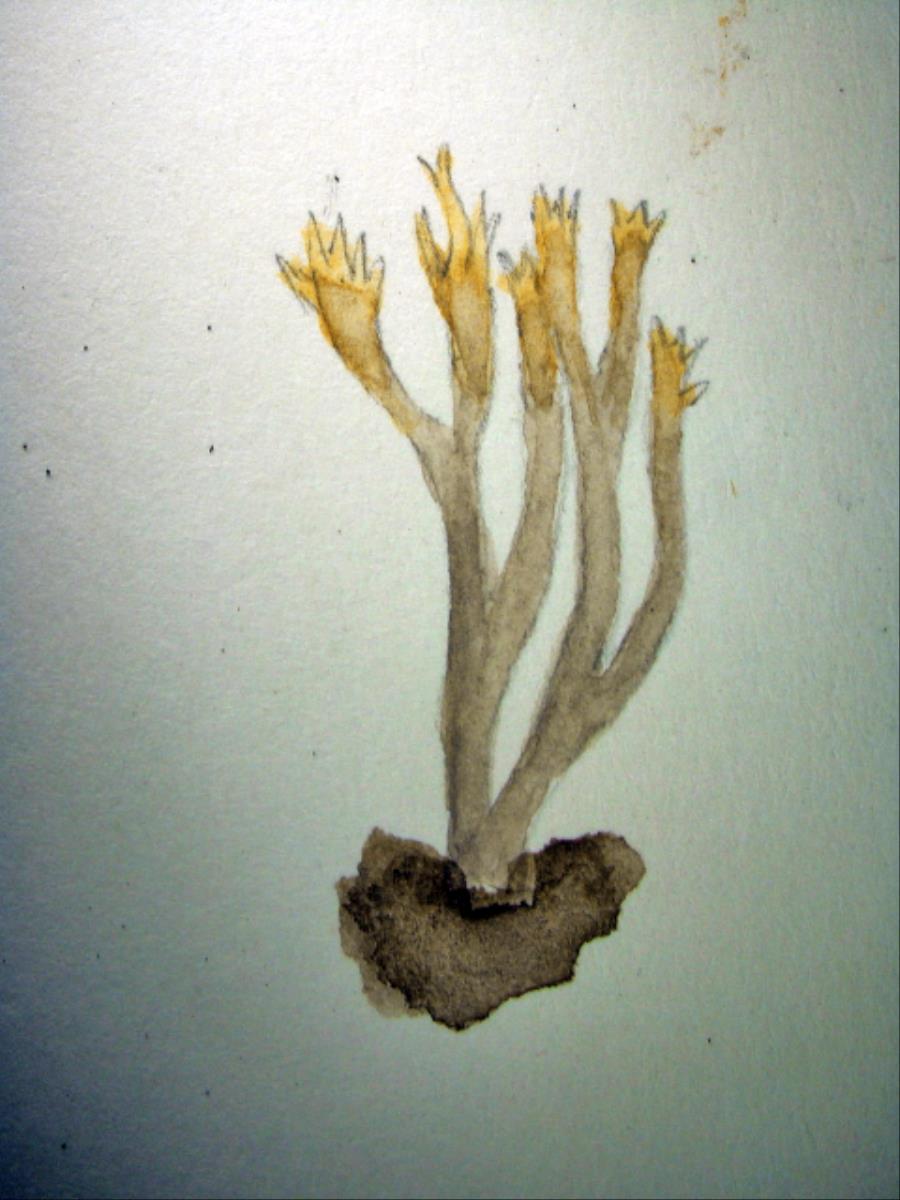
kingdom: Fungi
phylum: Basidiomycota
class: Agaricomycetes
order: Cantharellales
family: Hydnaceae
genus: Clavulina
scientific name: Clavulina leveillei
